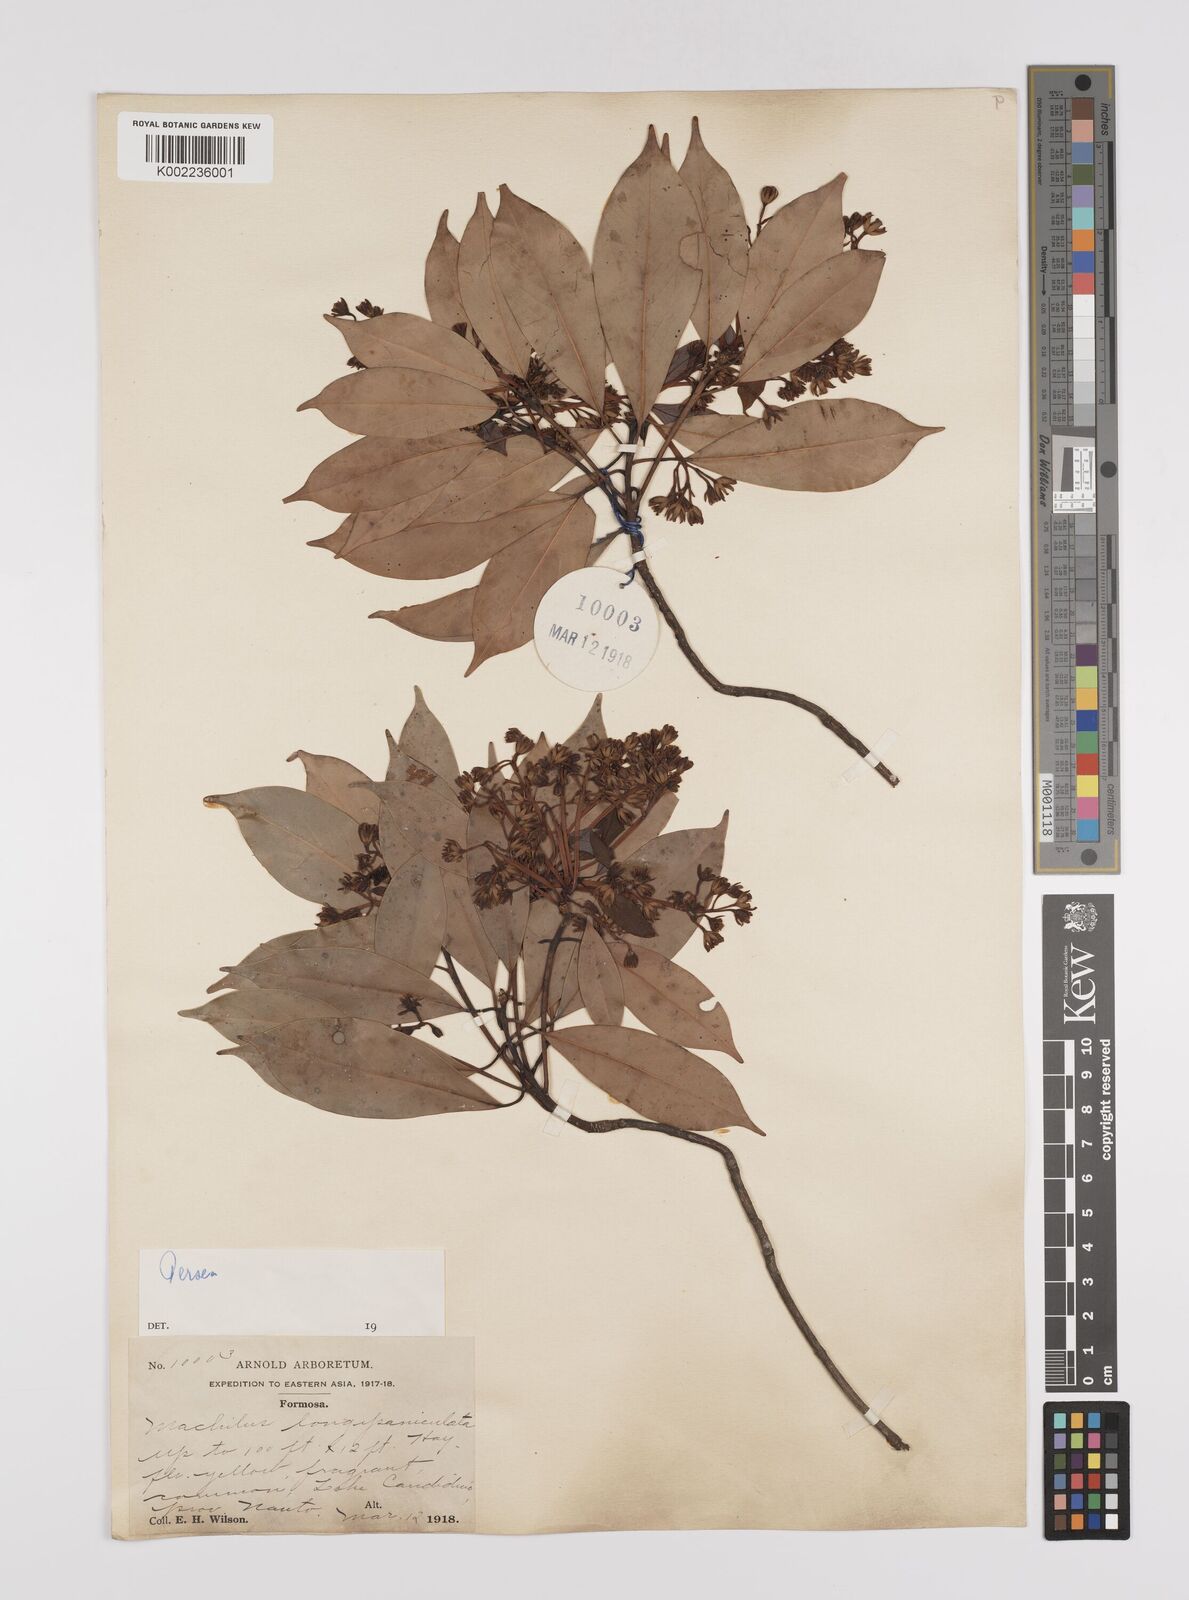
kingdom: Plantae
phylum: Tracheophyta
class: Magnoliopsida
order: Laurales
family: Lauraceae
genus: Persea
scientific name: Persea
